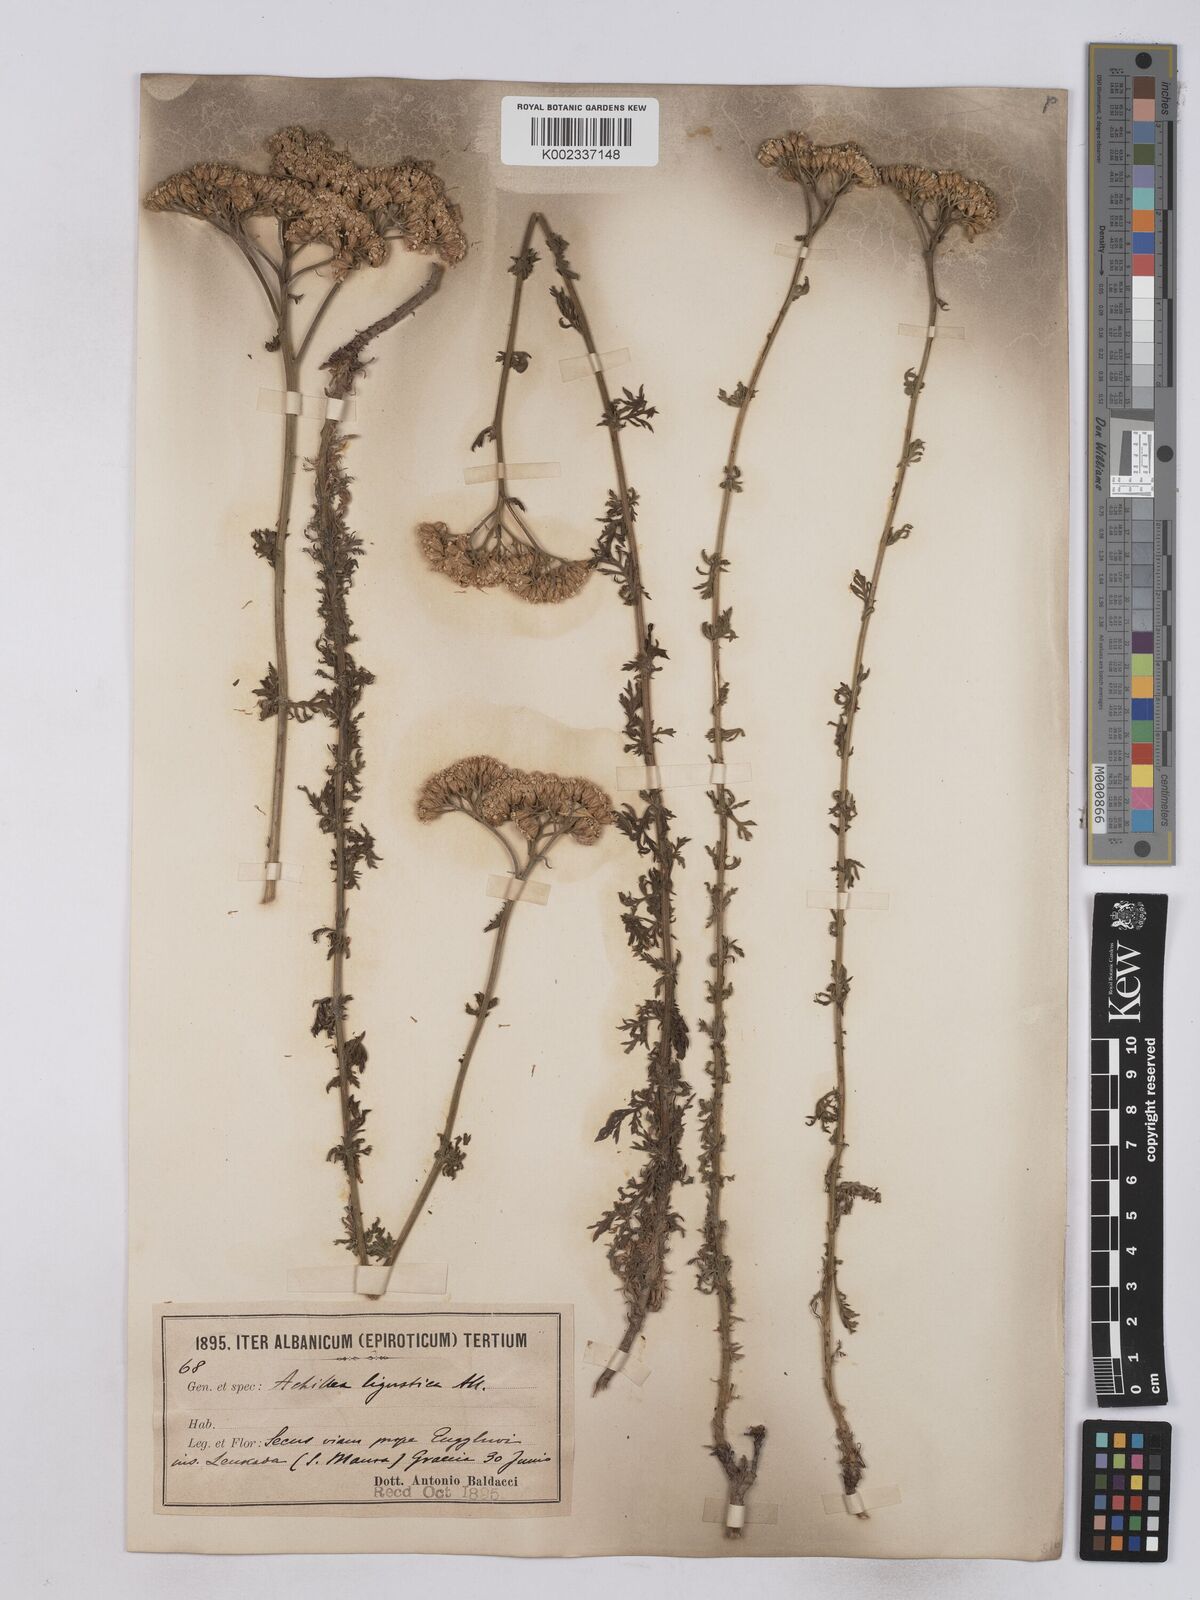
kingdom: Plantae
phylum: Tracheophyta
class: Magnoliopsida
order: Asterales
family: Asteraceae
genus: Achillea
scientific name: Achillea ligustica
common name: Southern yarrow
